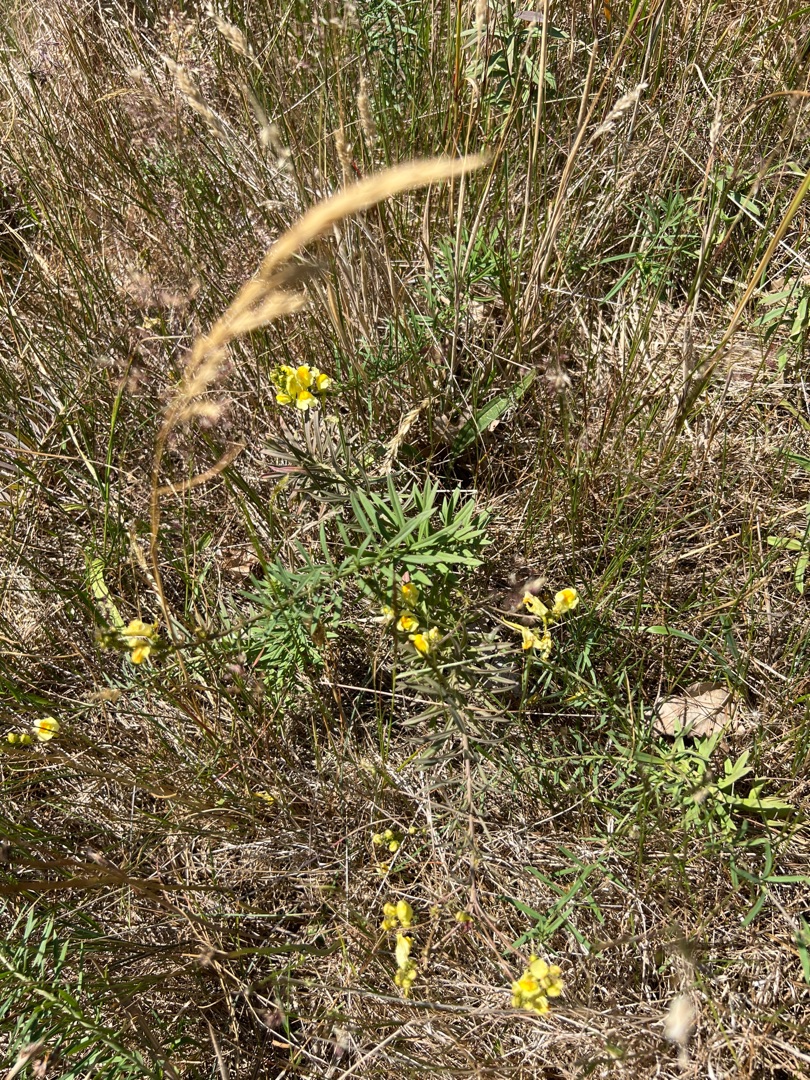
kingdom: Plantae
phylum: Tracheophyta
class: Magnoliopsida
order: Lamiales
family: Plantaginaceae
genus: Linaria
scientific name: Linaria vulgaris
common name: Almindelig torskemund
